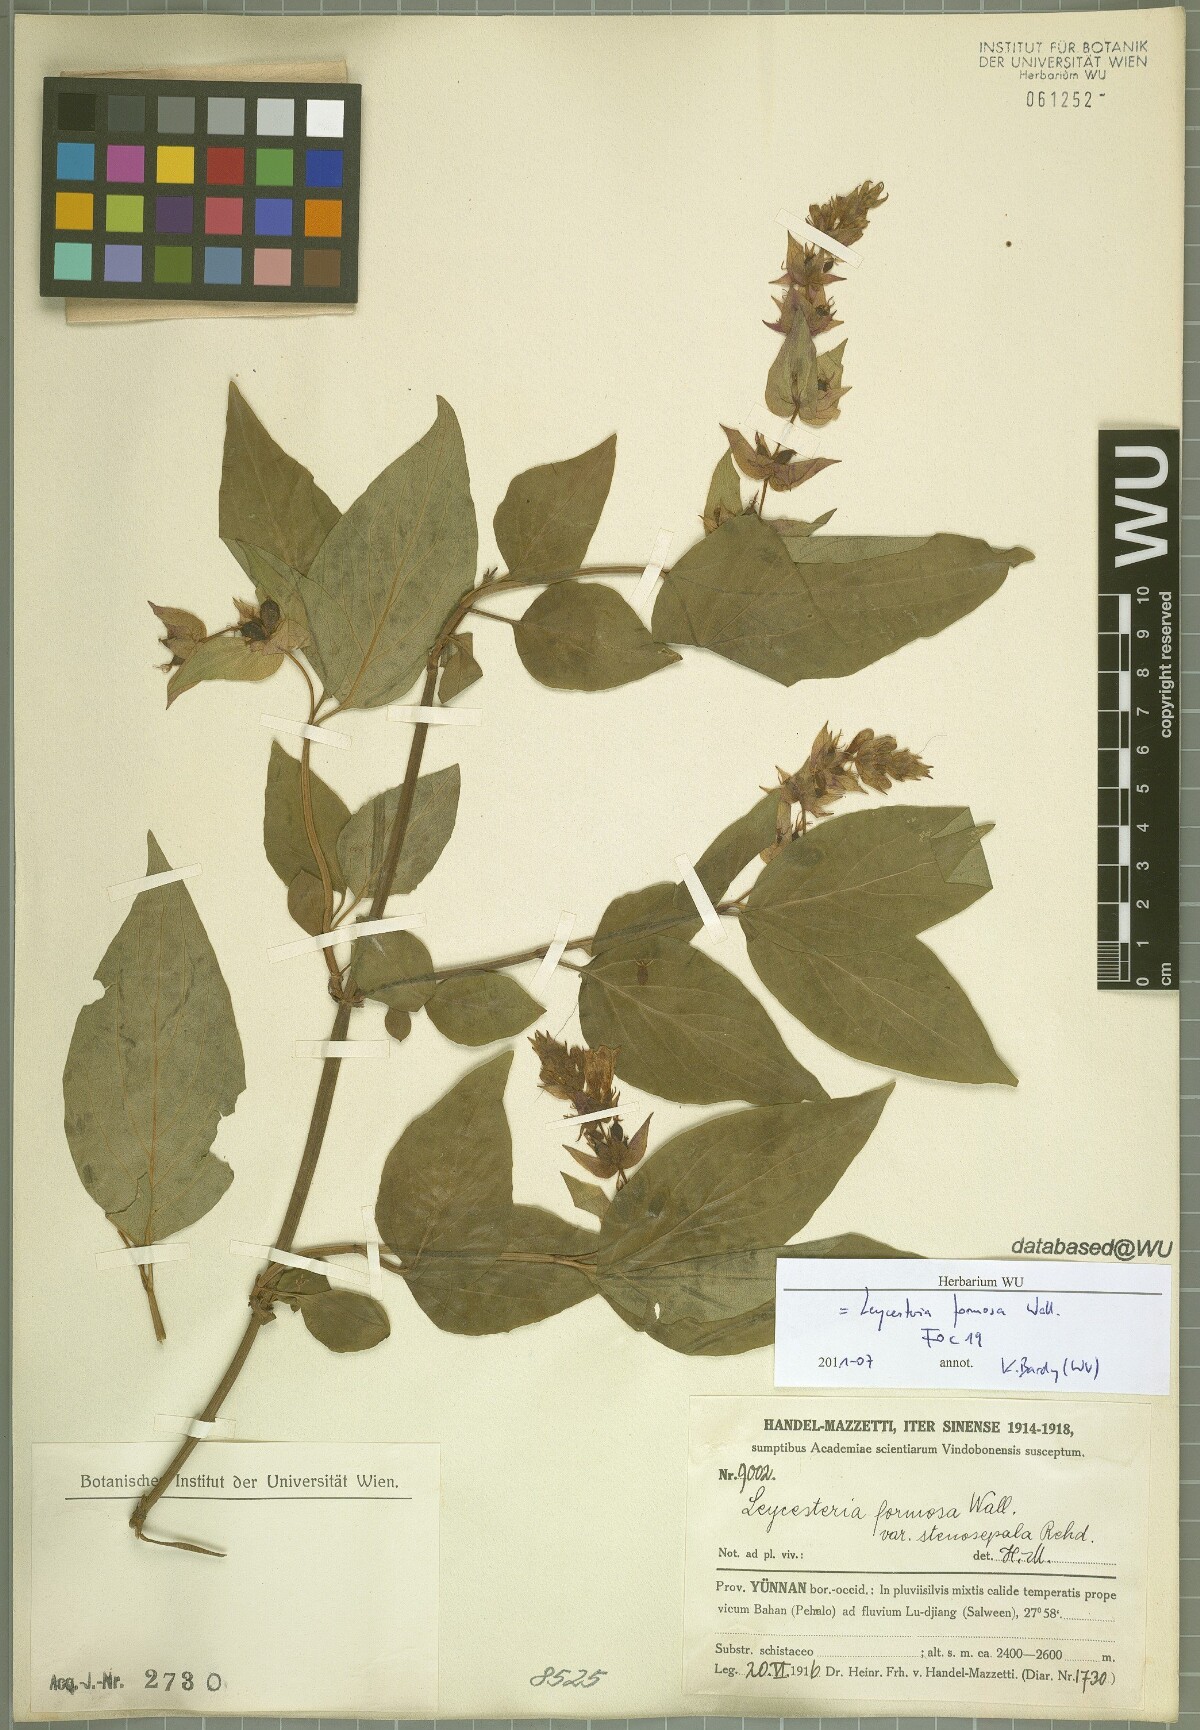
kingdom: Plantae
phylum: Tracheophyta
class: Magnoliopsida
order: Dipsacales
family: Caprifoliaceae
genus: Leycesteria
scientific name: Leycesteria formosa
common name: Himalayan honeysuckle
